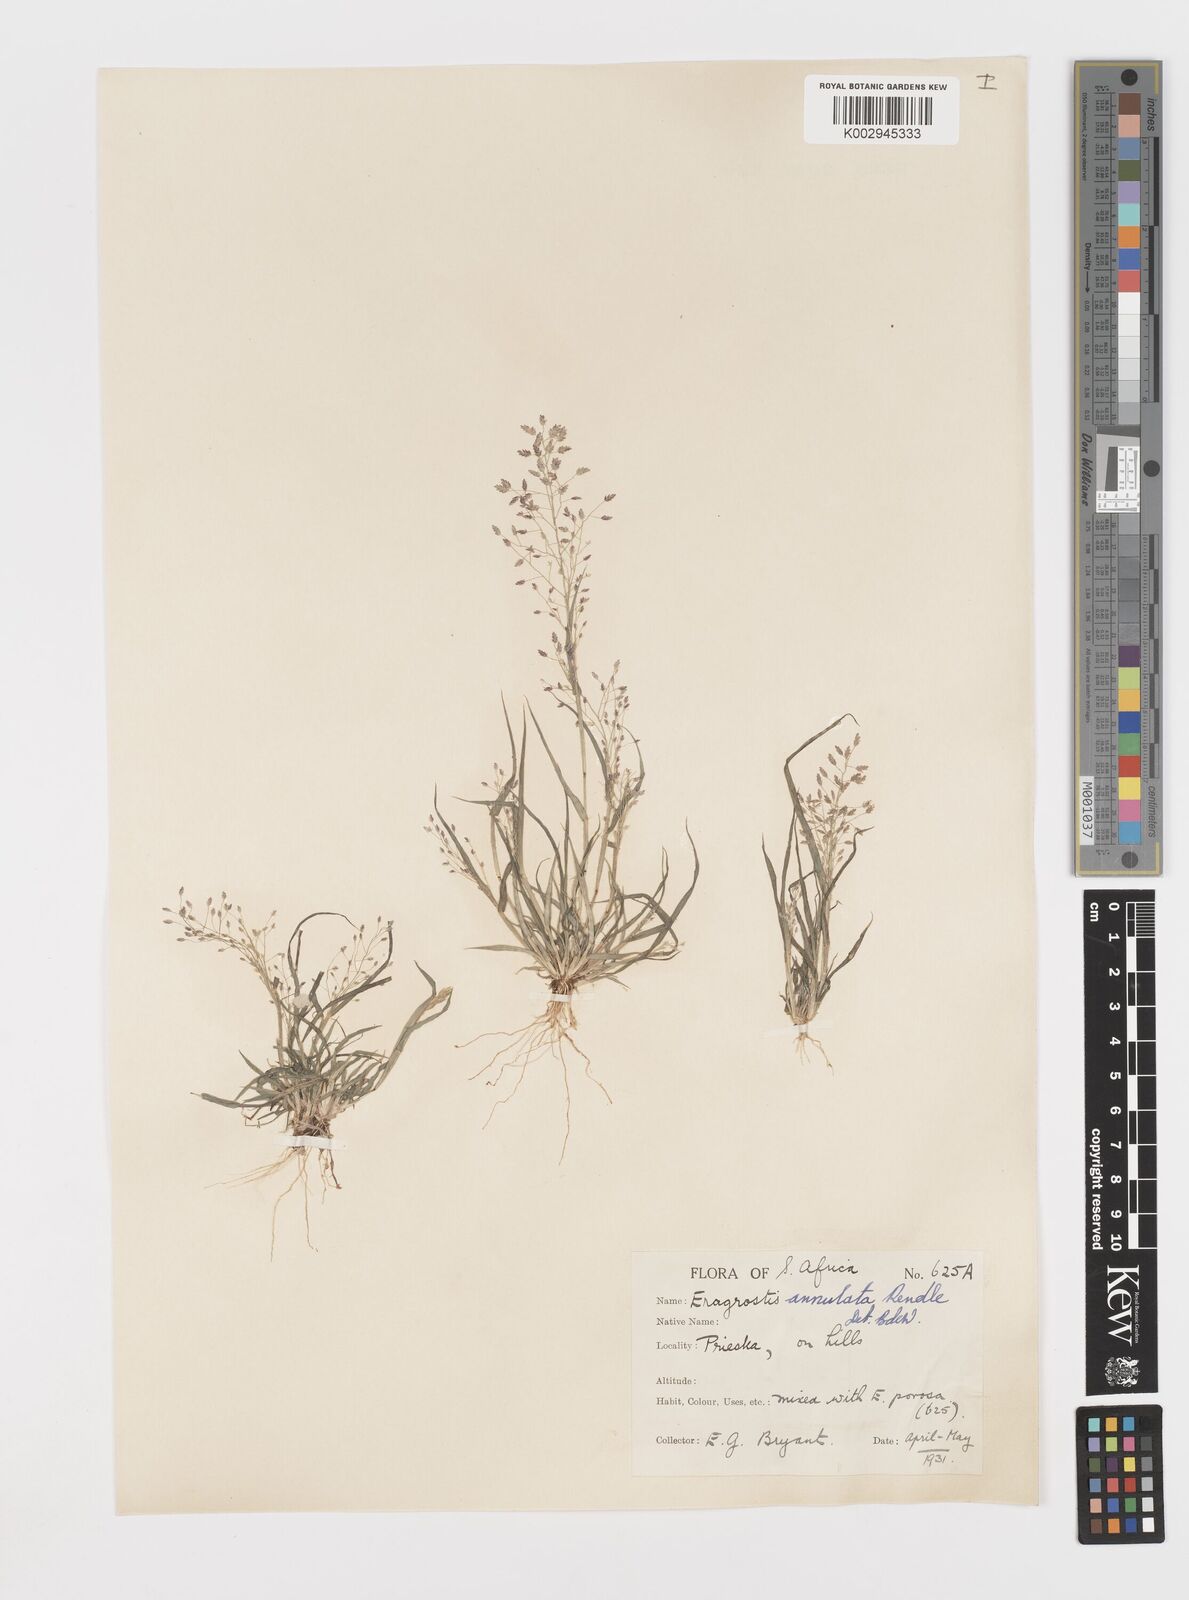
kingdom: Plantae
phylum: Tracheophyta
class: Liliopsida
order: Poales
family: Poaceae
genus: Eragrostis
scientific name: Eragrostis annulata
